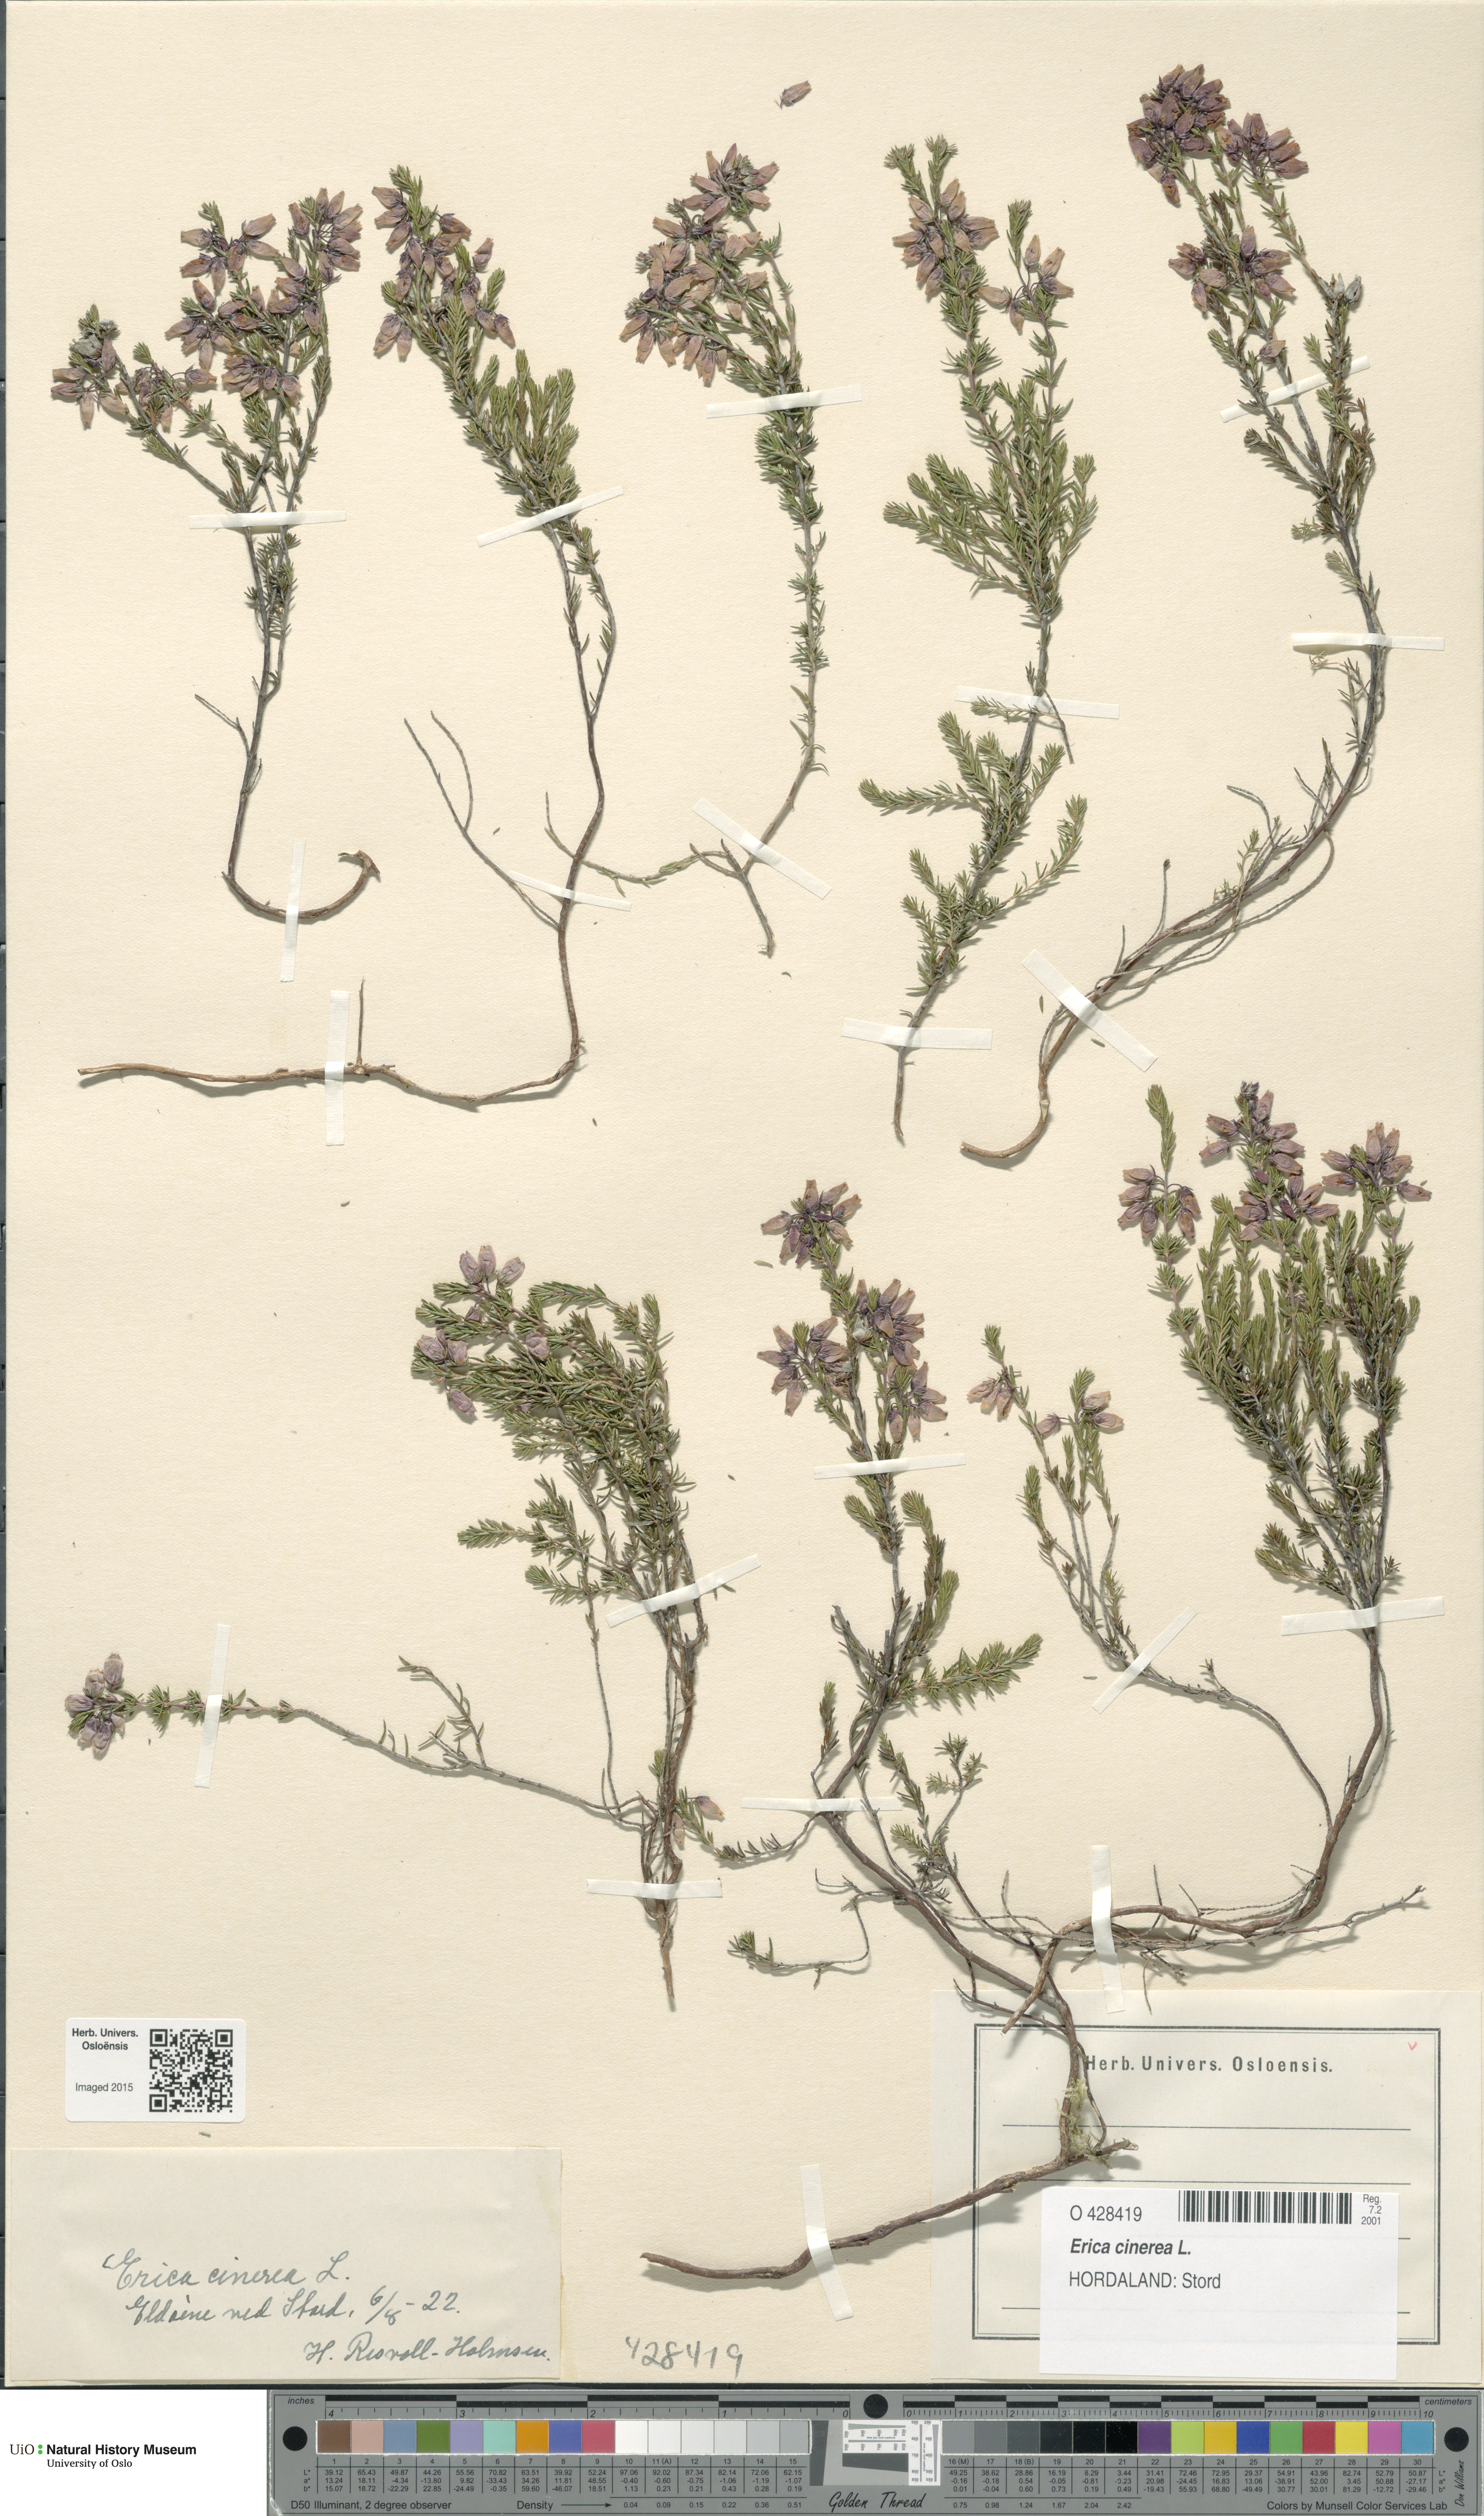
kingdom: Plantae
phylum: Tracheophyta
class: Magnoliopsida
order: Ericales
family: Ericaceae
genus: Erica
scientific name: Erica cinerea
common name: Bell heather
